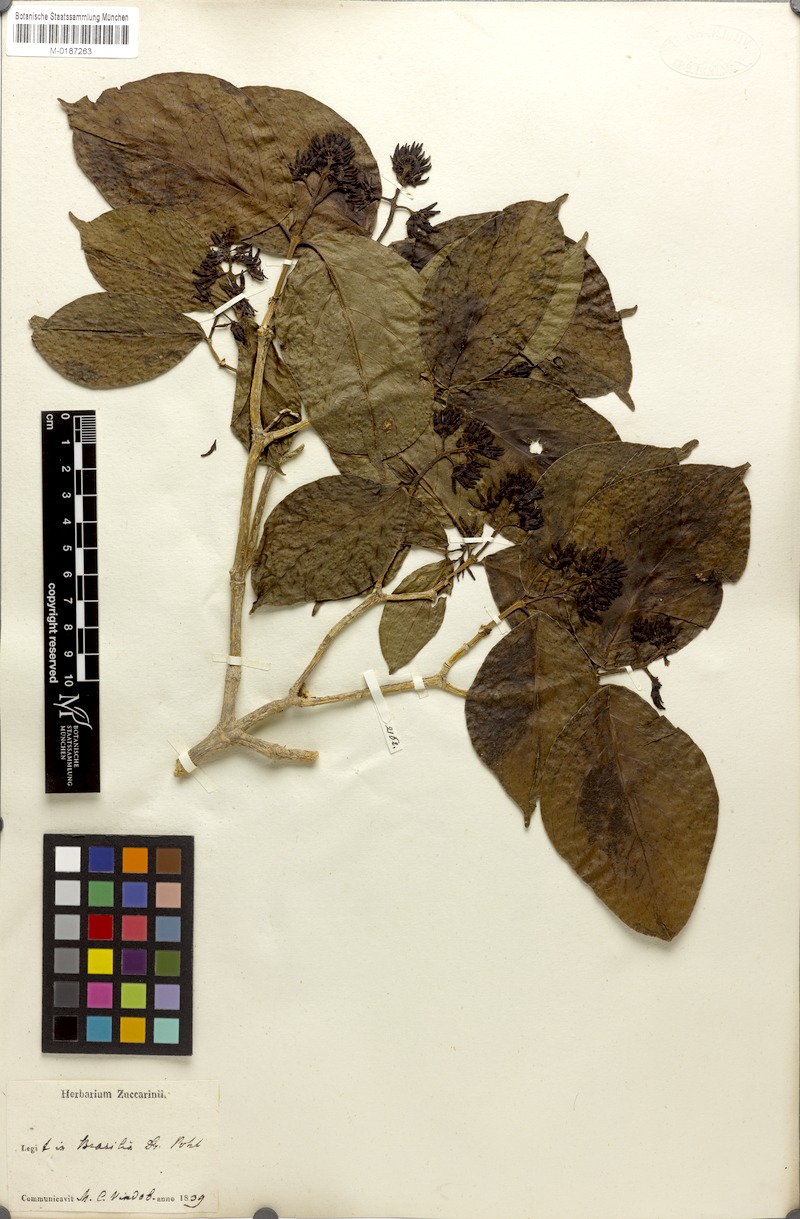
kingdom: Plantae
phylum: Tracheophyta
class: Magnoliopsida
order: Gentianales
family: Rubiaceae
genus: Coussarea
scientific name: Coussarea hydrangeifolia
